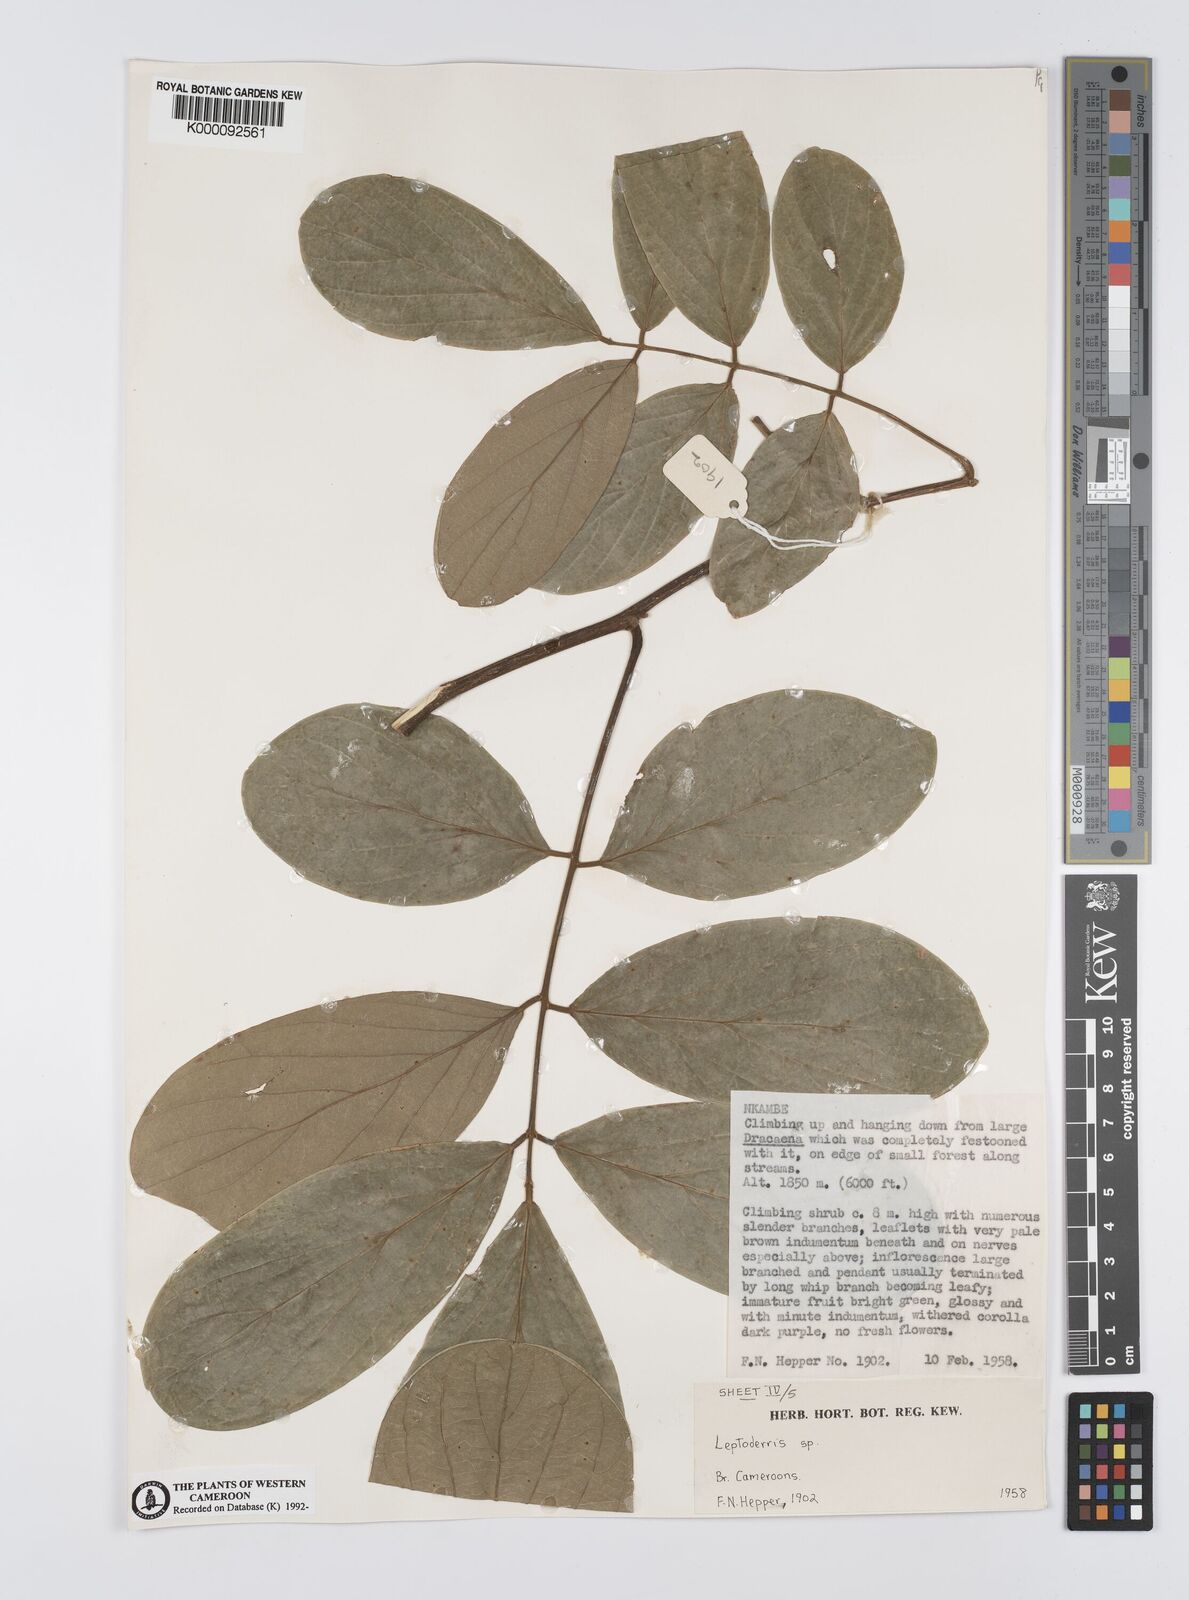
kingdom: Plantae
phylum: Tracheophyta
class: Magnoliopsida
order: Fabales
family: Fabaceae
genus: Leptoderris
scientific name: Leptoderris
